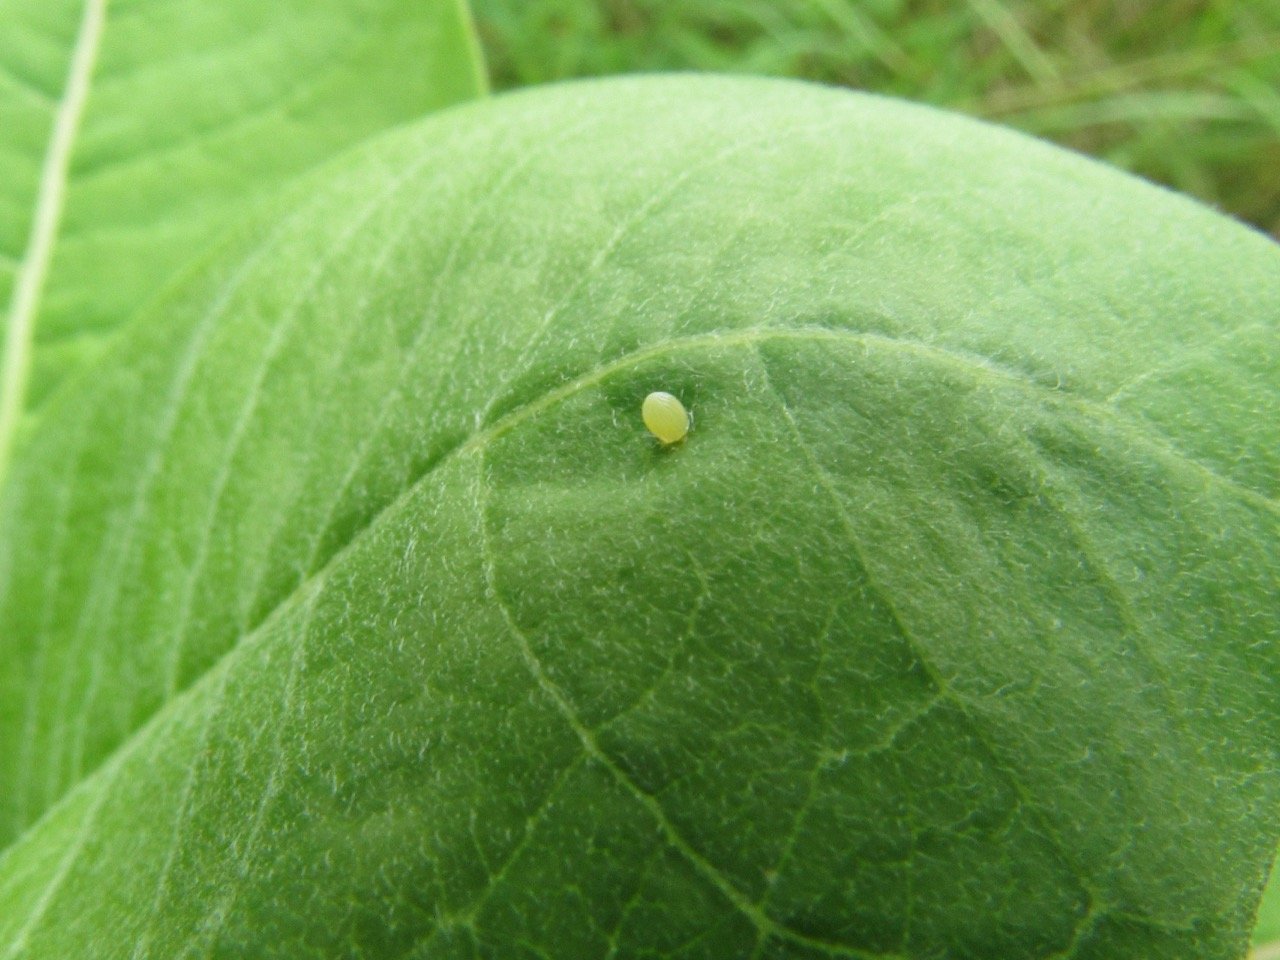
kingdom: Animalia
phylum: Arthropoda
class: Insecta
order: Lepidoptera
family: Nymphalidae
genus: Danaus
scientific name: Danaus plexippus
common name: Monarch
